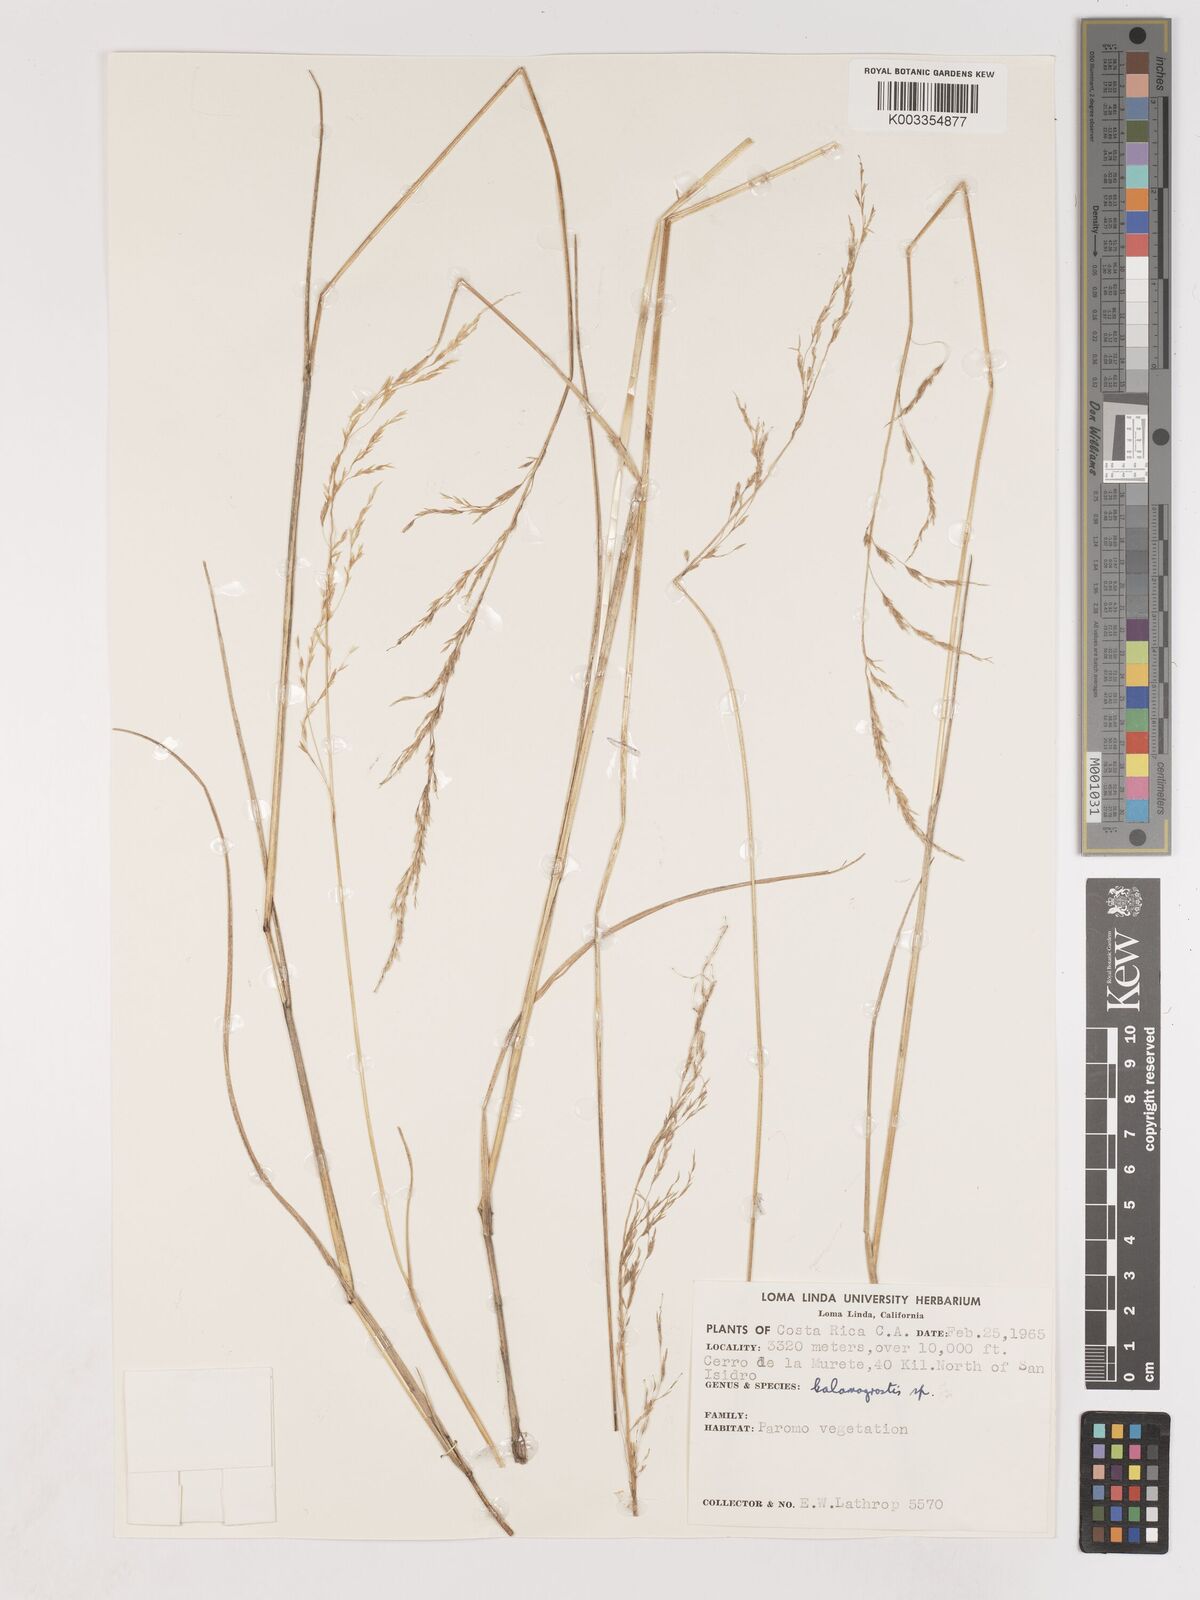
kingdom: Plantae
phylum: Tracheophyta
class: Liliopsida
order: Poales
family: Poaceae
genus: Calamagrostis
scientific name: Calamagrostis
